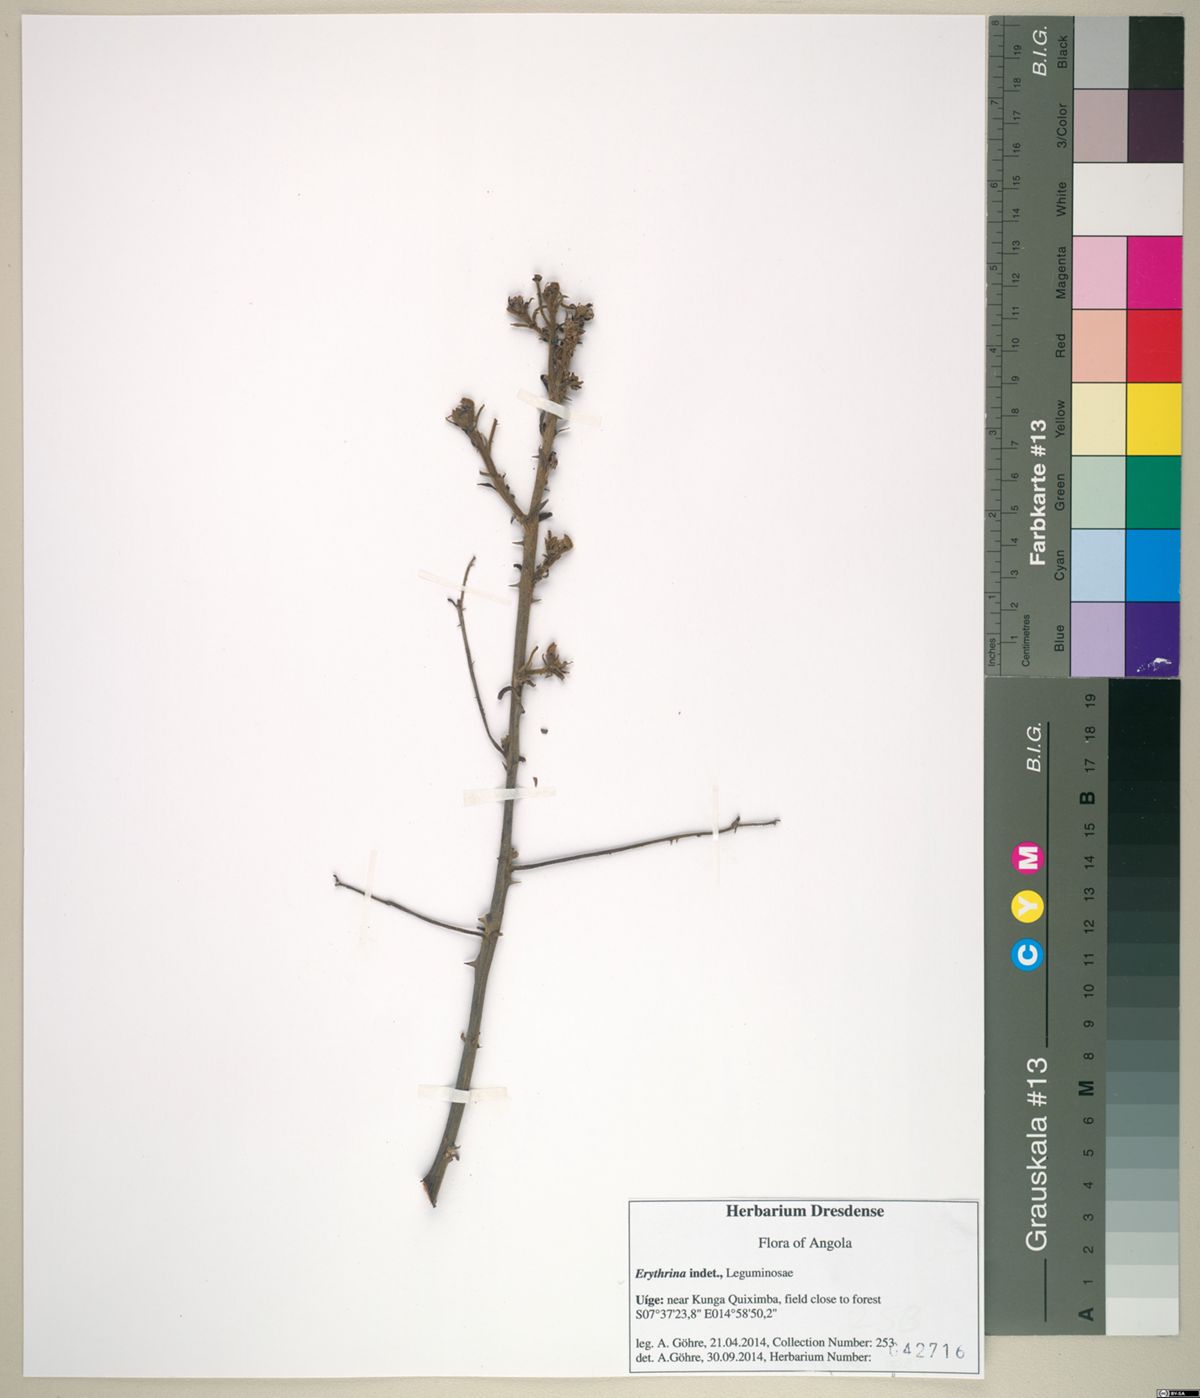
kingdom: Plantae
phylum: Tracheophyta
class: Magnoliopsida
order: Fabales
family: Fabaceae
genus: Erythrina
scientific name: Erythrina
